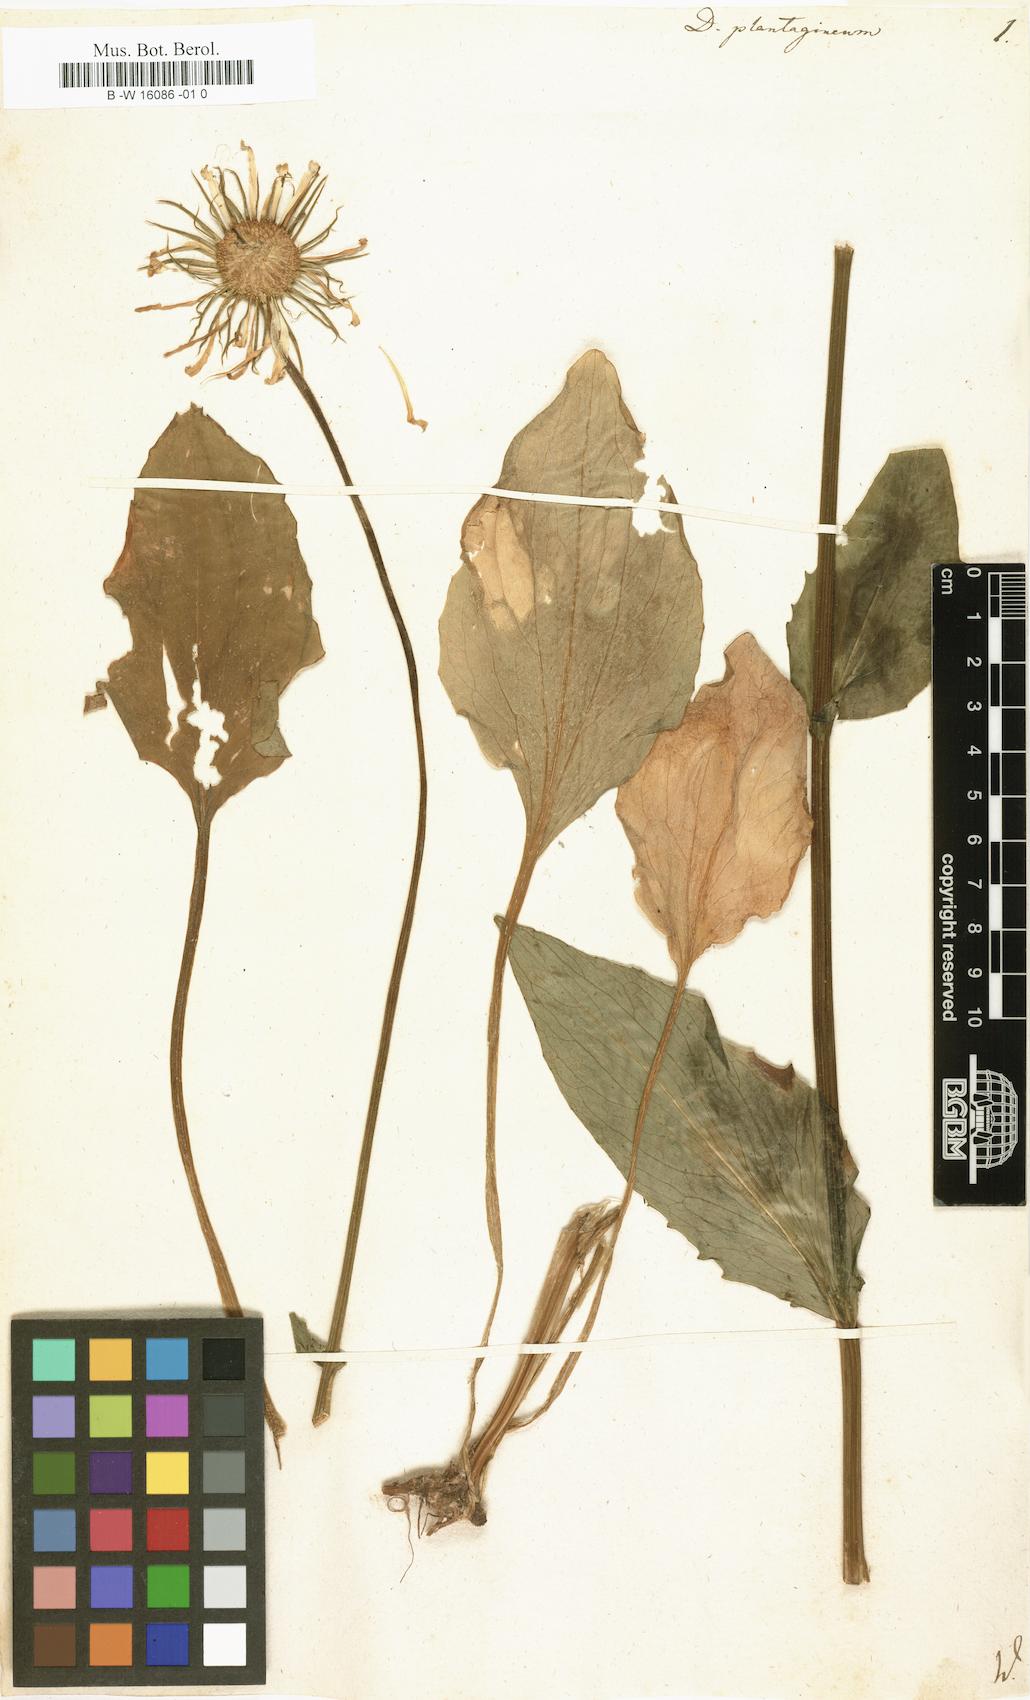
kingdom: Plantae
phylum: Tracheophyta
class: Magnoliopsida
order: Asterales
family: Asteraceae
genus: Doronicum
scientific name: Doronicum plantagineum
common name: Plantain-leaved leopard's-bane
